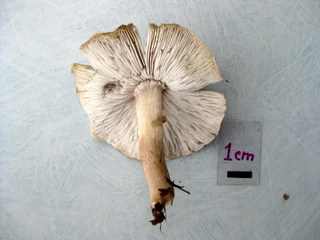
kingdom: Fungi
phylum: Basidiomycota
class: Agaricomycetes
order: Agaricales
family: Tricholomataceae
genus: Tricholoma
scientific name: Tricholoma argyraceum
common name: spids ridderhat
